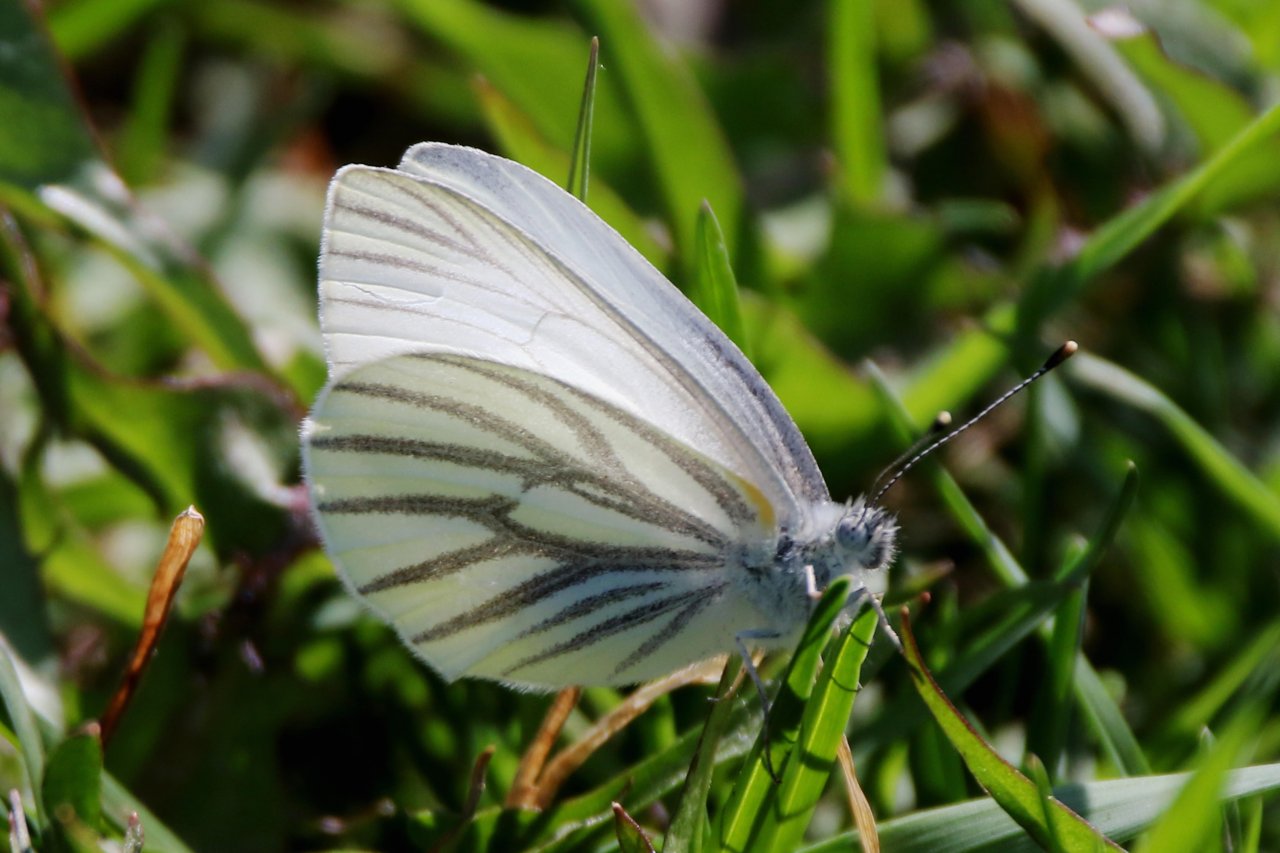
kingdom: Animalia
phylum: Arthropoda
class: Insecta
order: Lepidoptera
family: Pieridae
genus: Pieris
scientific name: Pieris oleracea
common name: Mustard White
